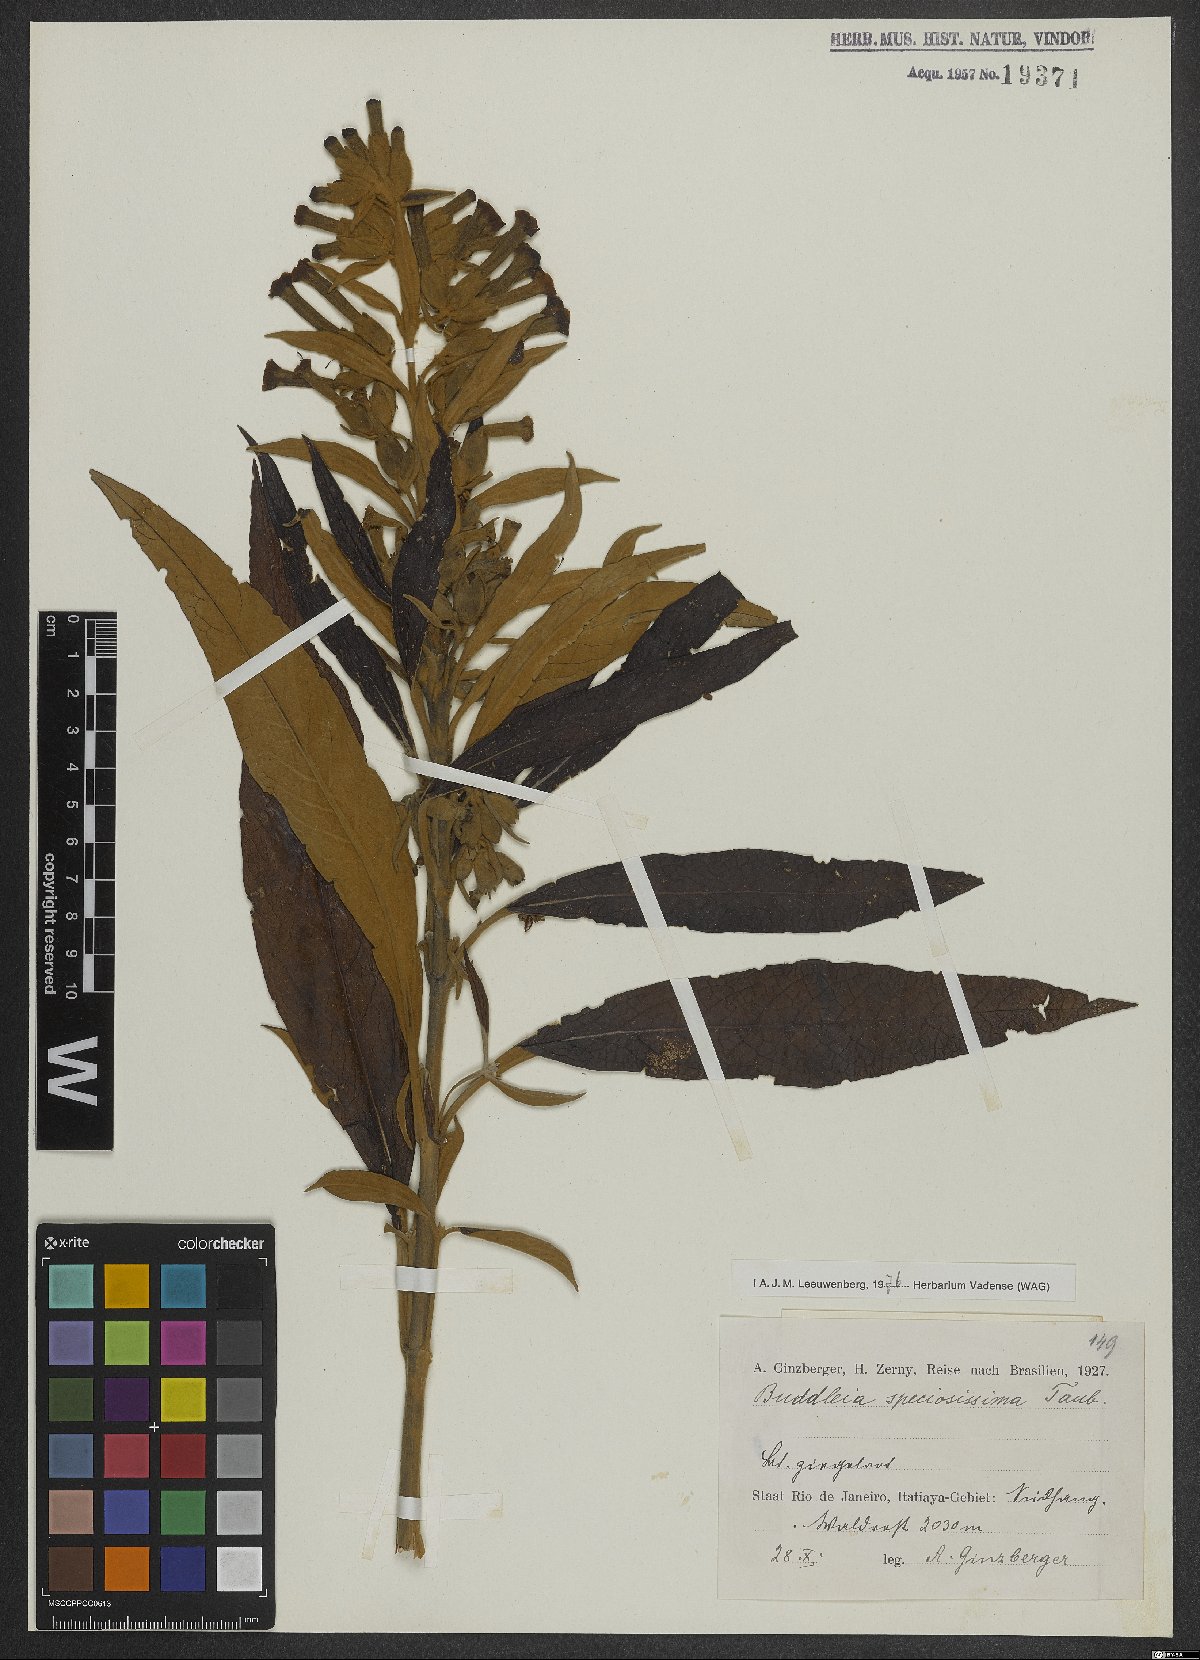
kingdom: Plantae
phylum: Tracheophyta
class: Magnoliopsida
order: Lamiales
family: Scrophulariaceae
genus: Buddleja
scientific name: Buddleja speciosissima
